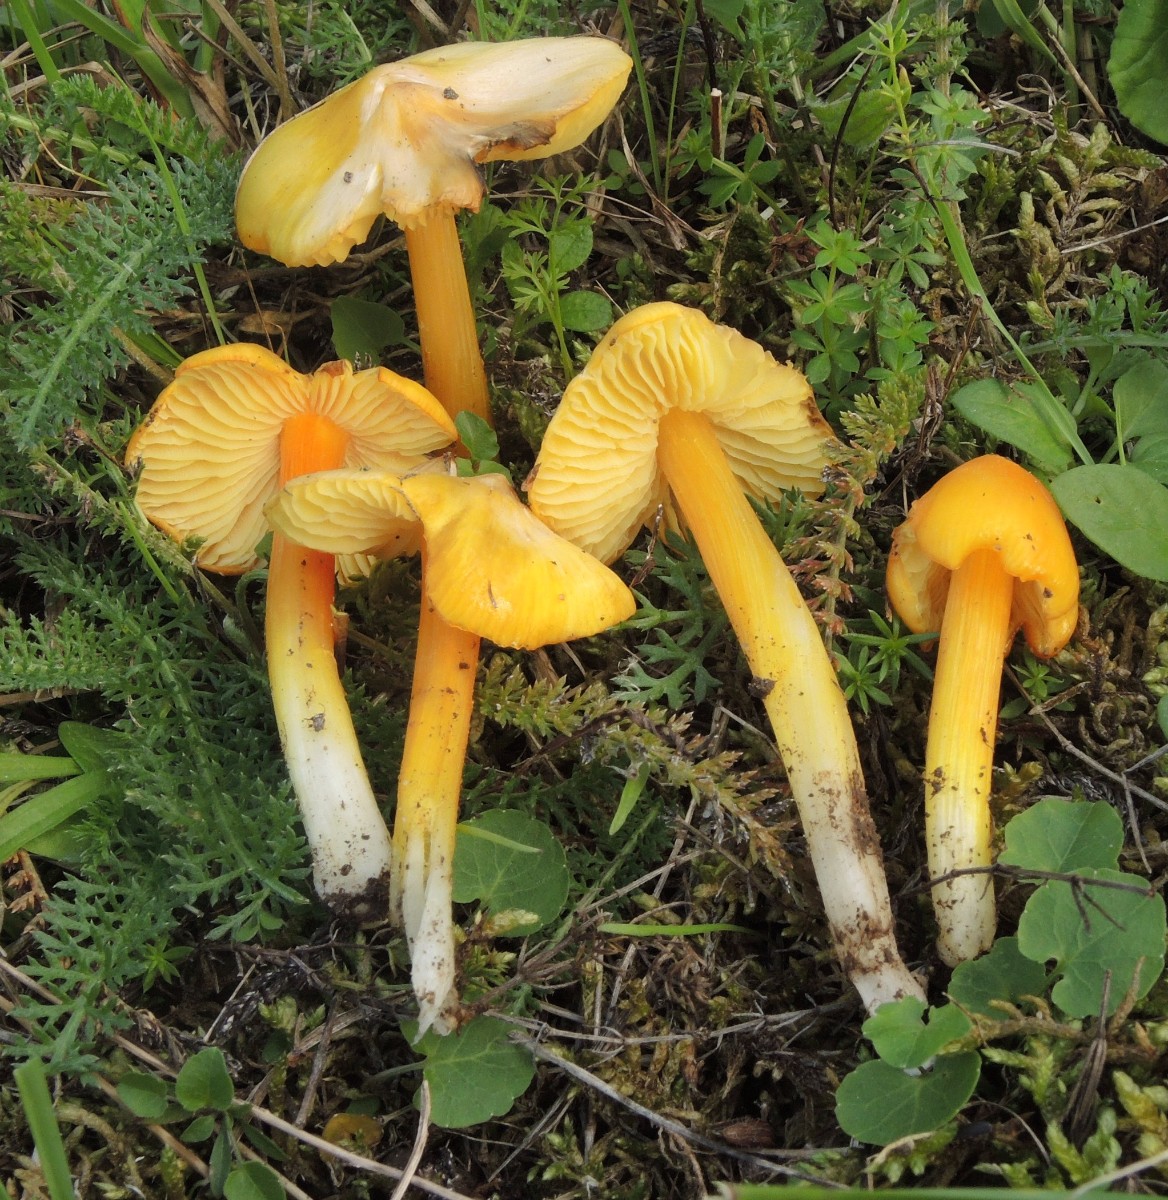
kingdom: Fungi
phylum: Basidiomycota
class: Agaricomycetes
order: Agaricales
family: Hygrophoraceae
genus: Hygrocybe
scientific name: Hygrocybe acutoconica
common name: Konrads vokshat
